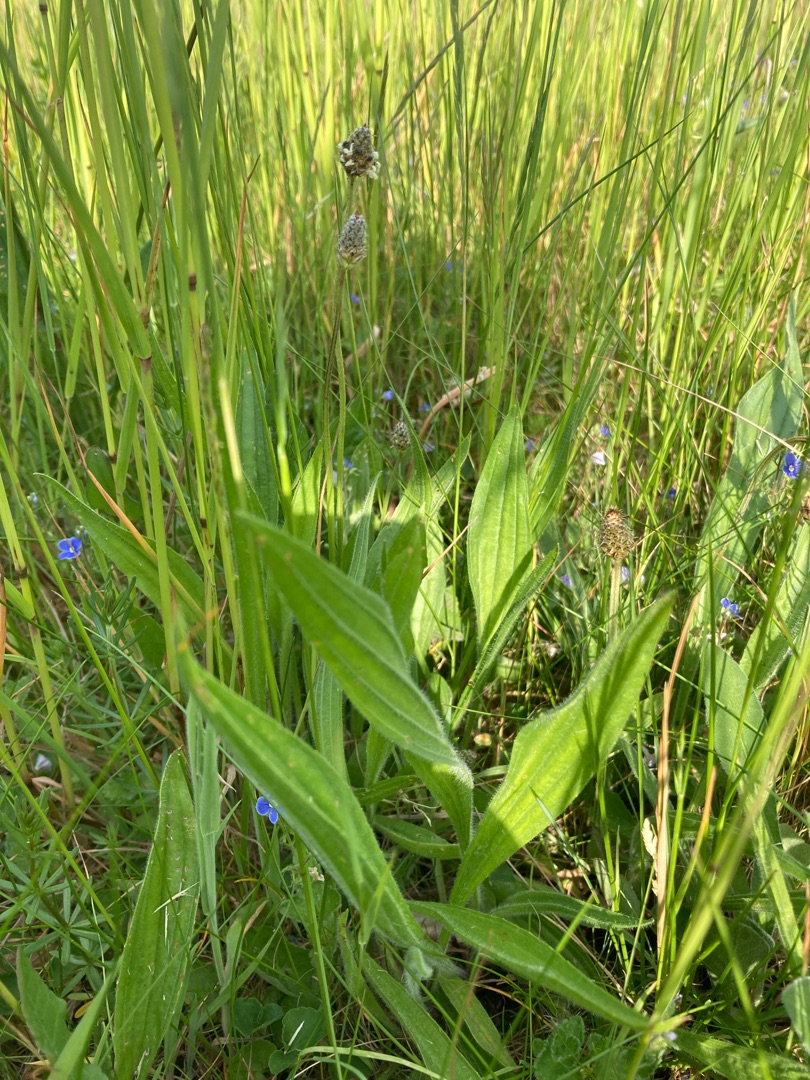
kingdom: Plantae
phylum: Tracheophyta
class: Magnoliopsida
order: Lamiales
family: Plantaginaceae
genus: Plantago
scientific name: Plantago lanceolata
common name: Lancet-vejbred
